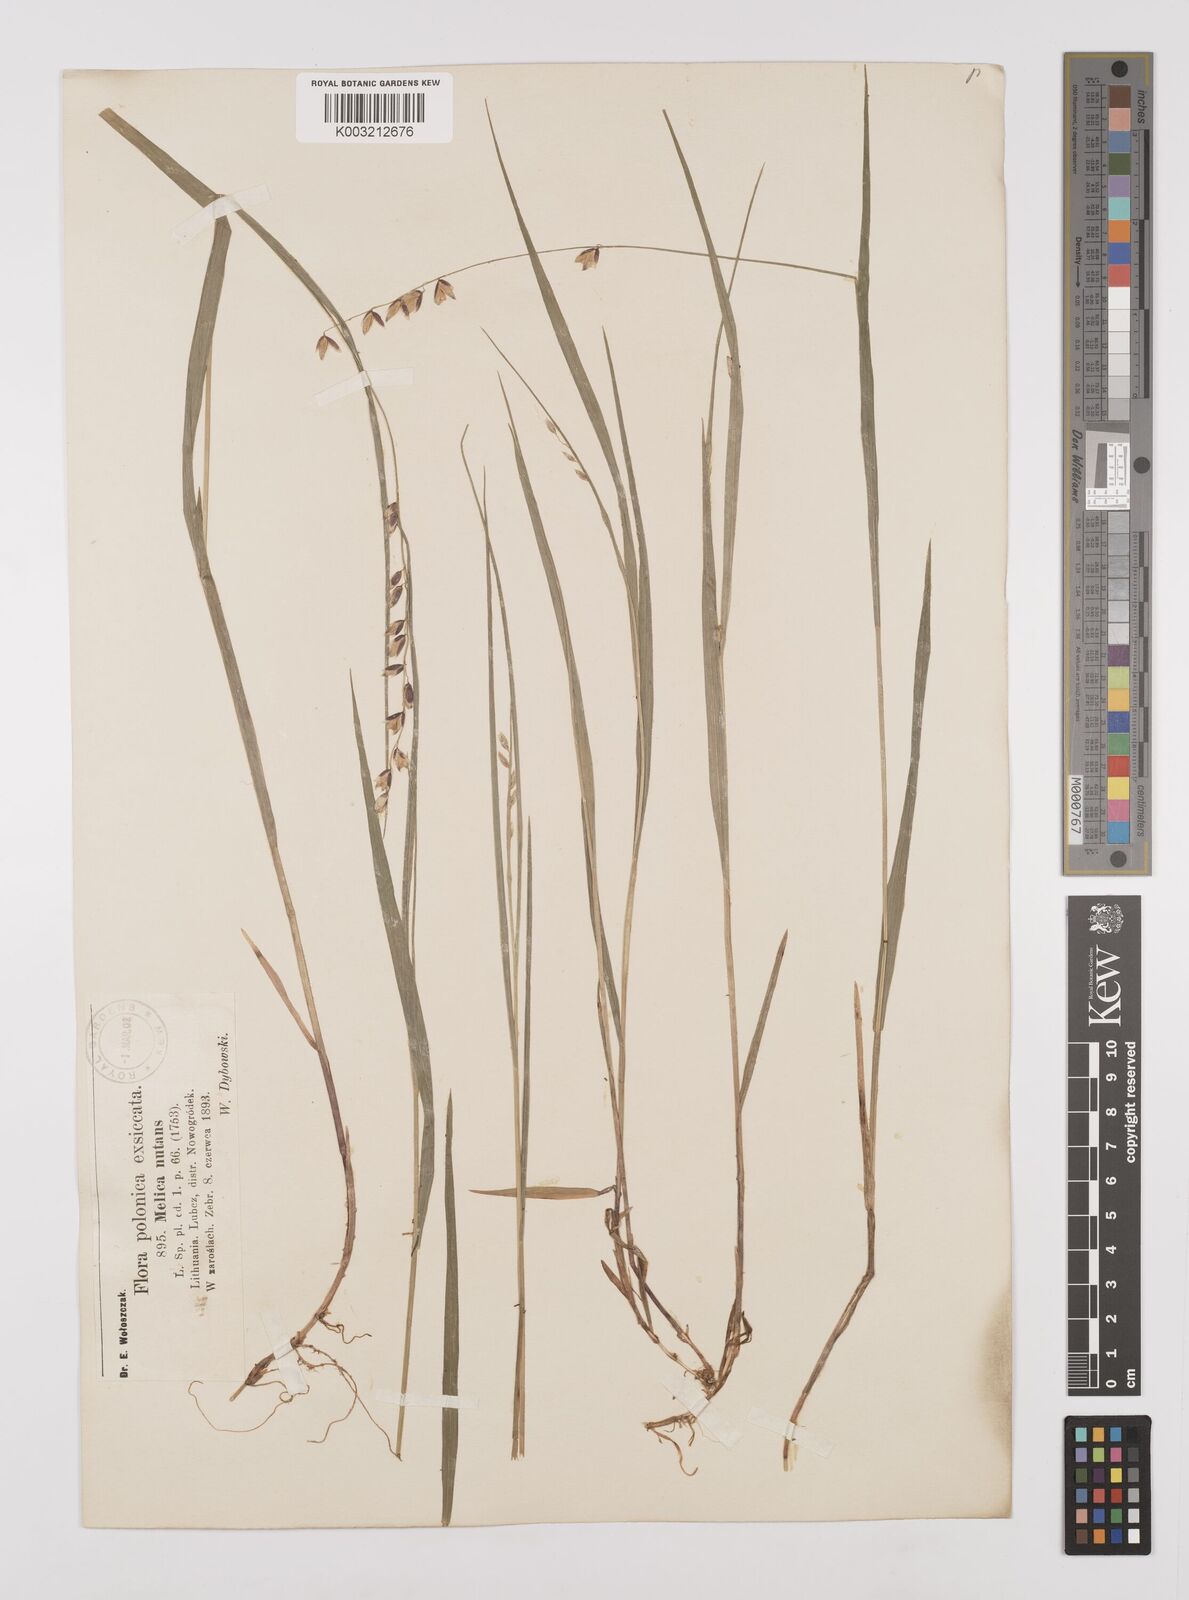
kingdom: Plantae
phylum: Tracheophyta
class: Liliopsida
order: Poales
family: Poaceae
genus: Melica
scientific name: Melica nutans
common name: Mountain melick
